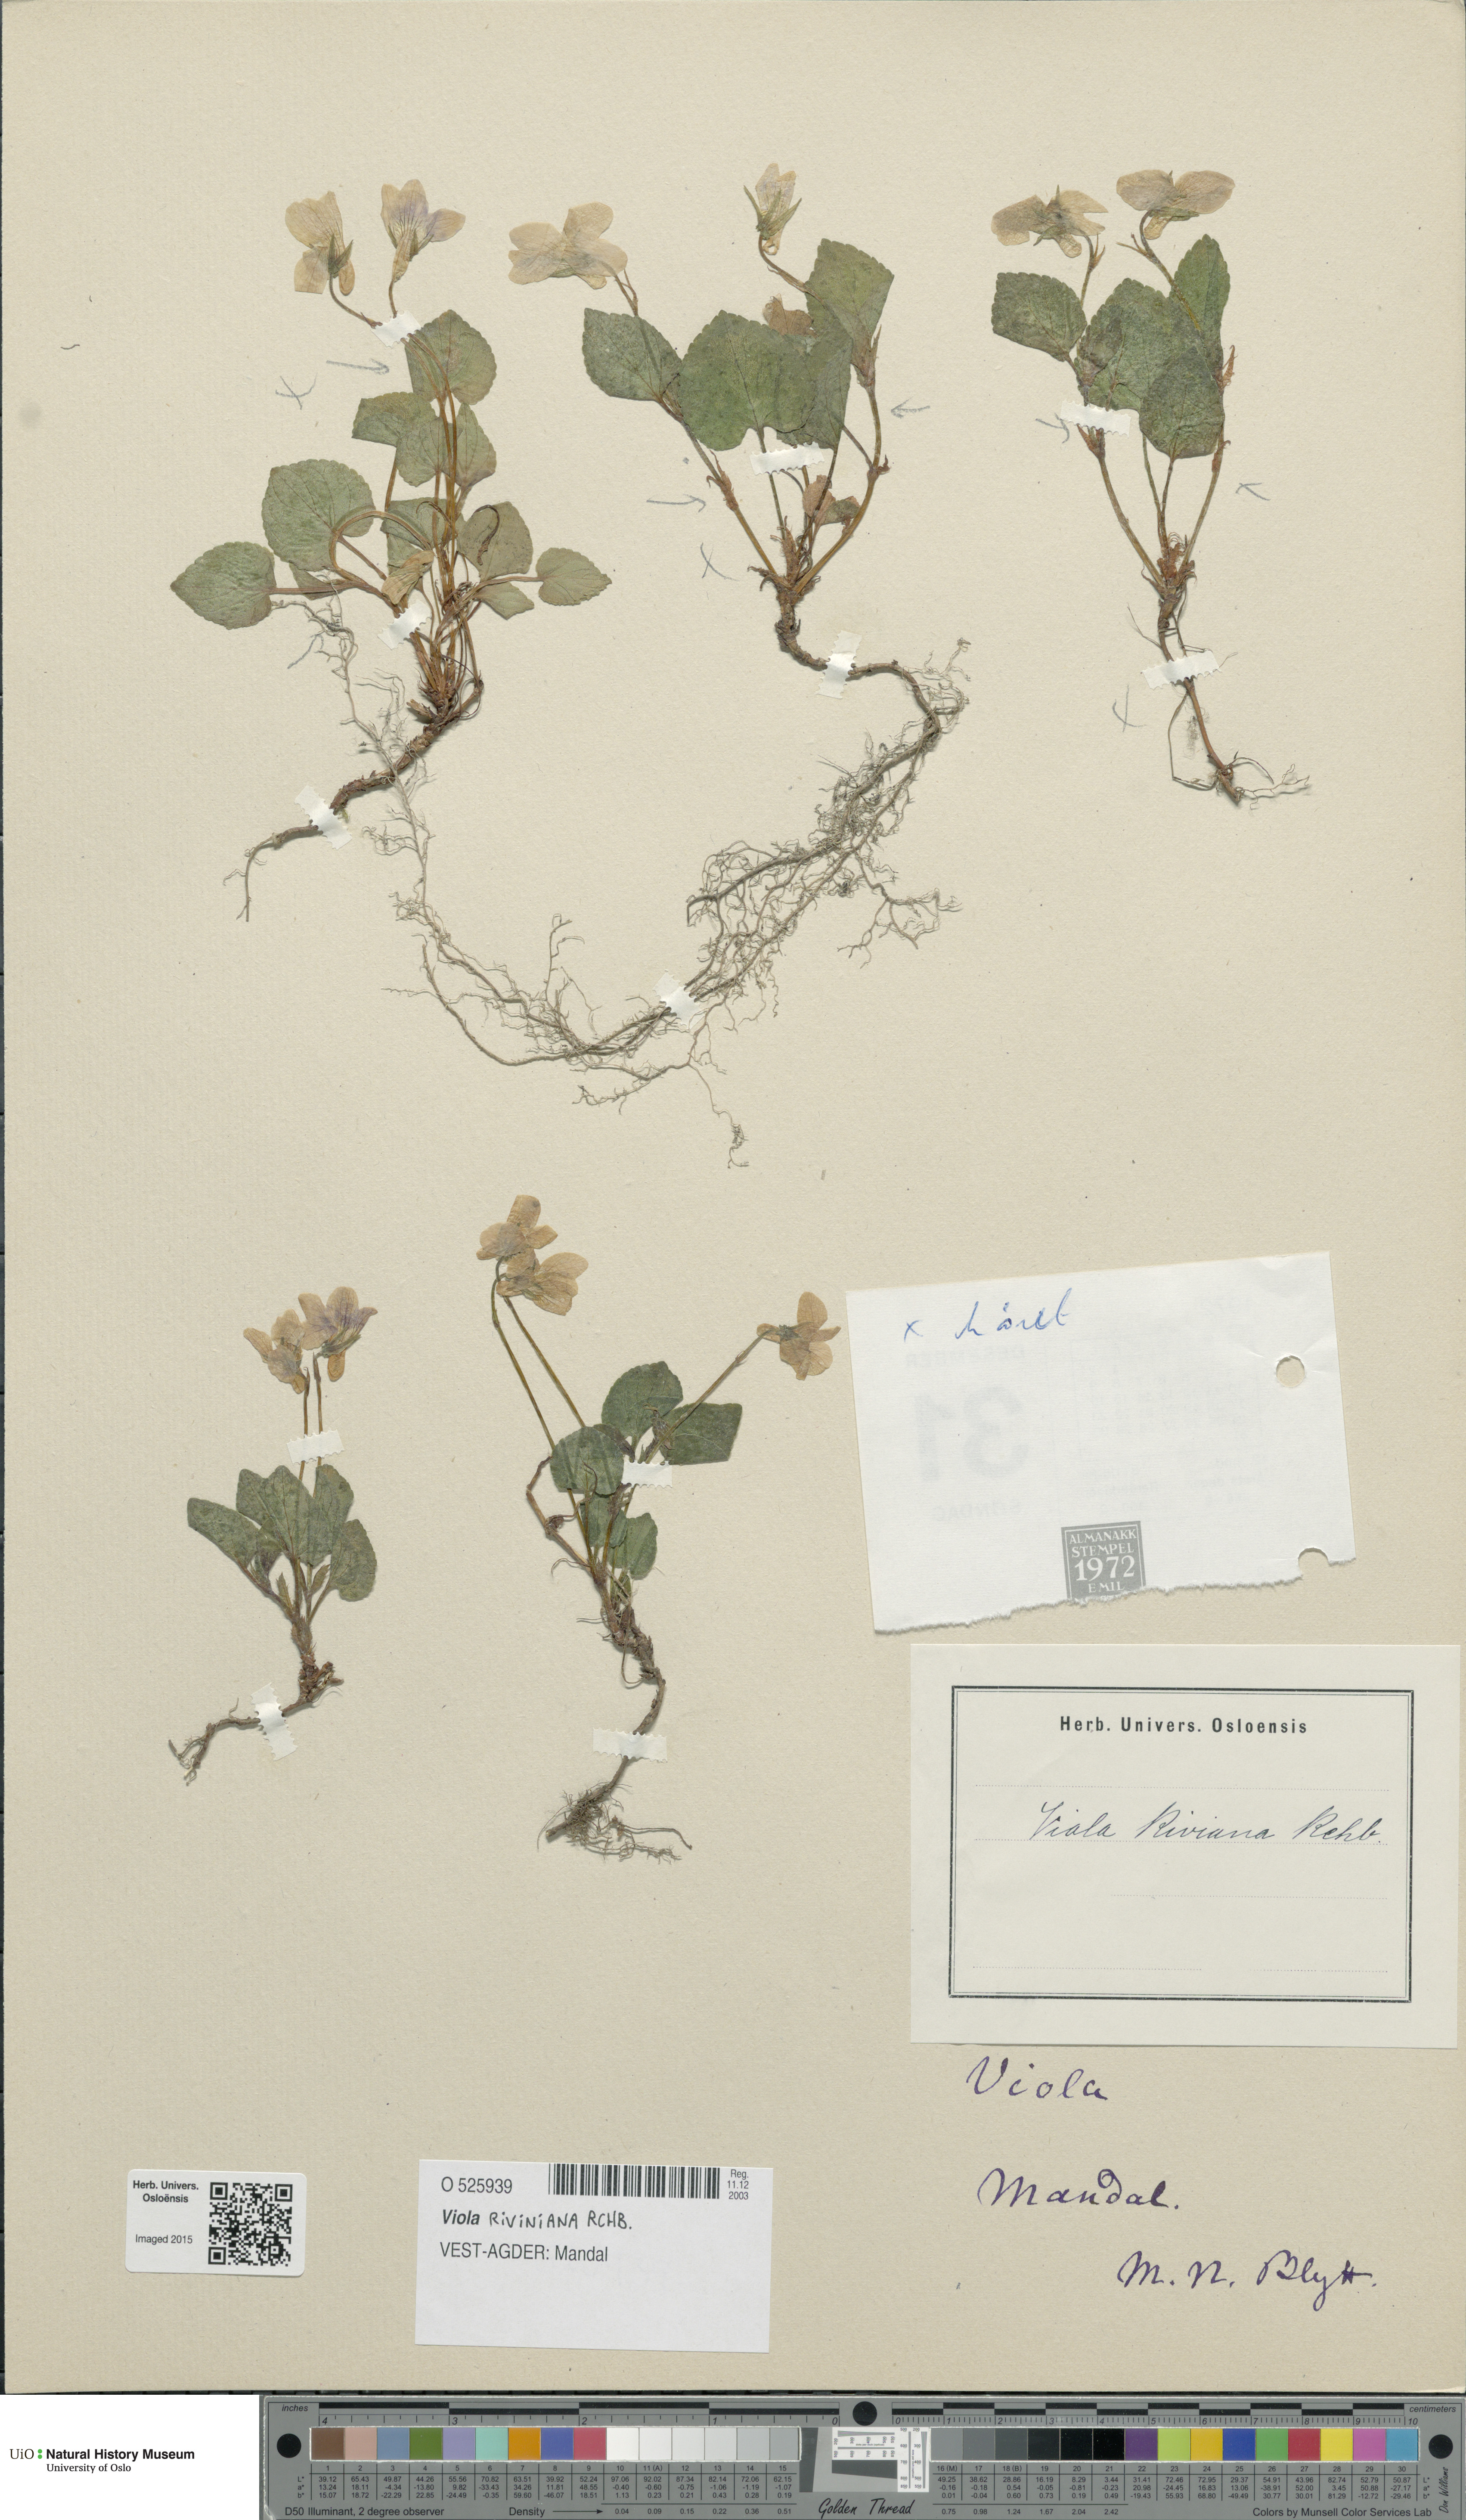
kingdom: Plantae
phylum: Tracheophyta
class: Magnoliopsida
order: Malpighiales
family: Violaceae
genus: Viola
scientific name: Viola riviniana
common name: Common dog-violet
